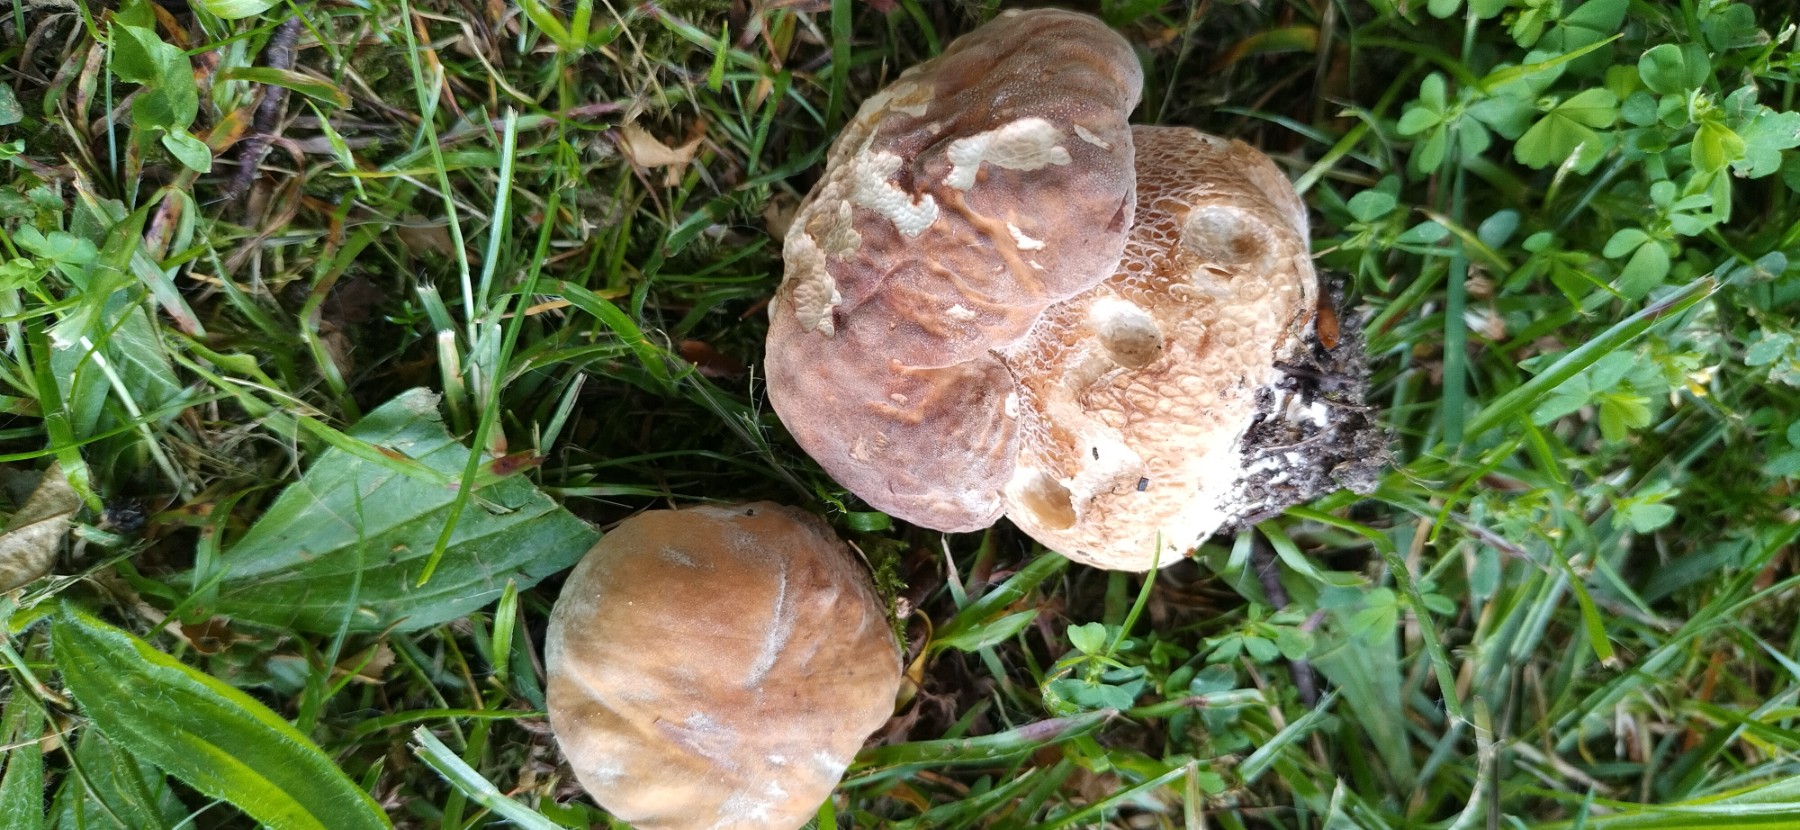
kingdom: Fungi
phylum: Basidiomycota
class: Agaricomycetes
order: Boletales
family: Boletaceae
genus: Boletus
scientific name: Boletus reticulatus
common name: sommer-rørhat
